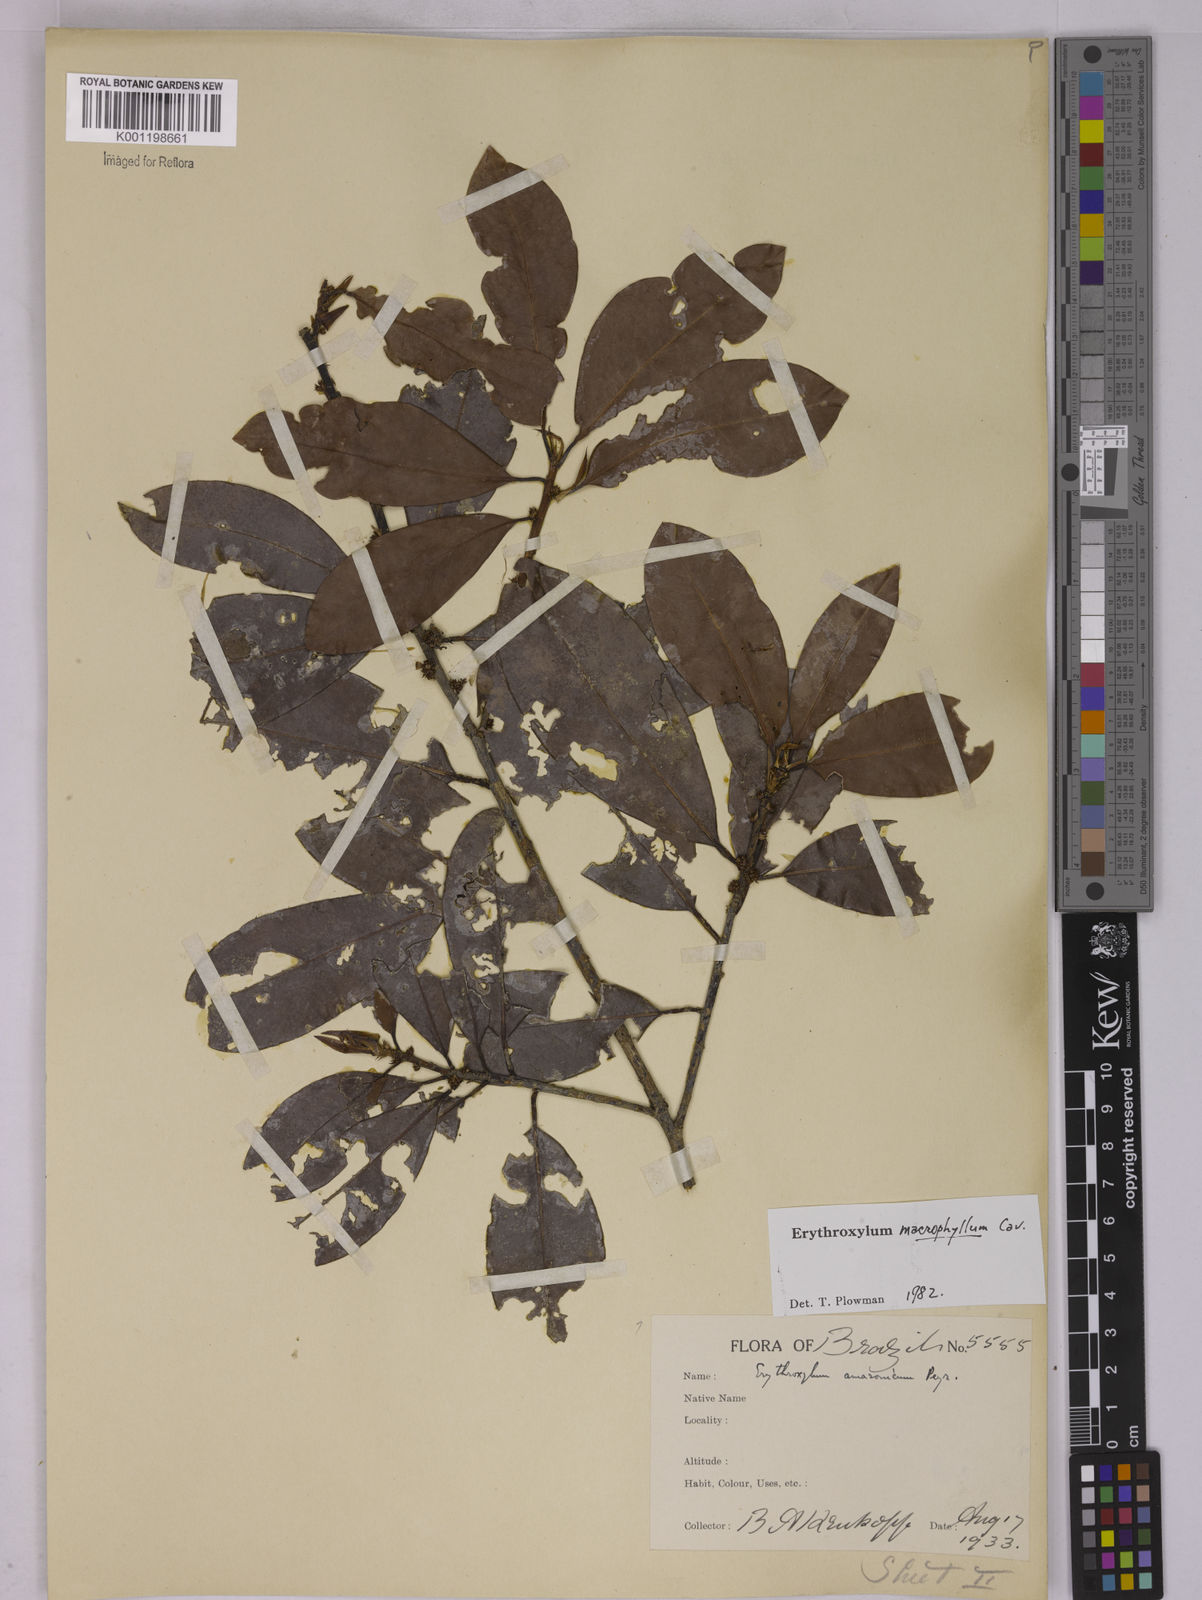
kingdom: Plantae
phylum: Tracheophyta
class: Magnoliopsida
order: Malpighiales
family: Erythroxylaceae
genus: Erythroxylum
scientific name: Erythroxylum macrophyllum
